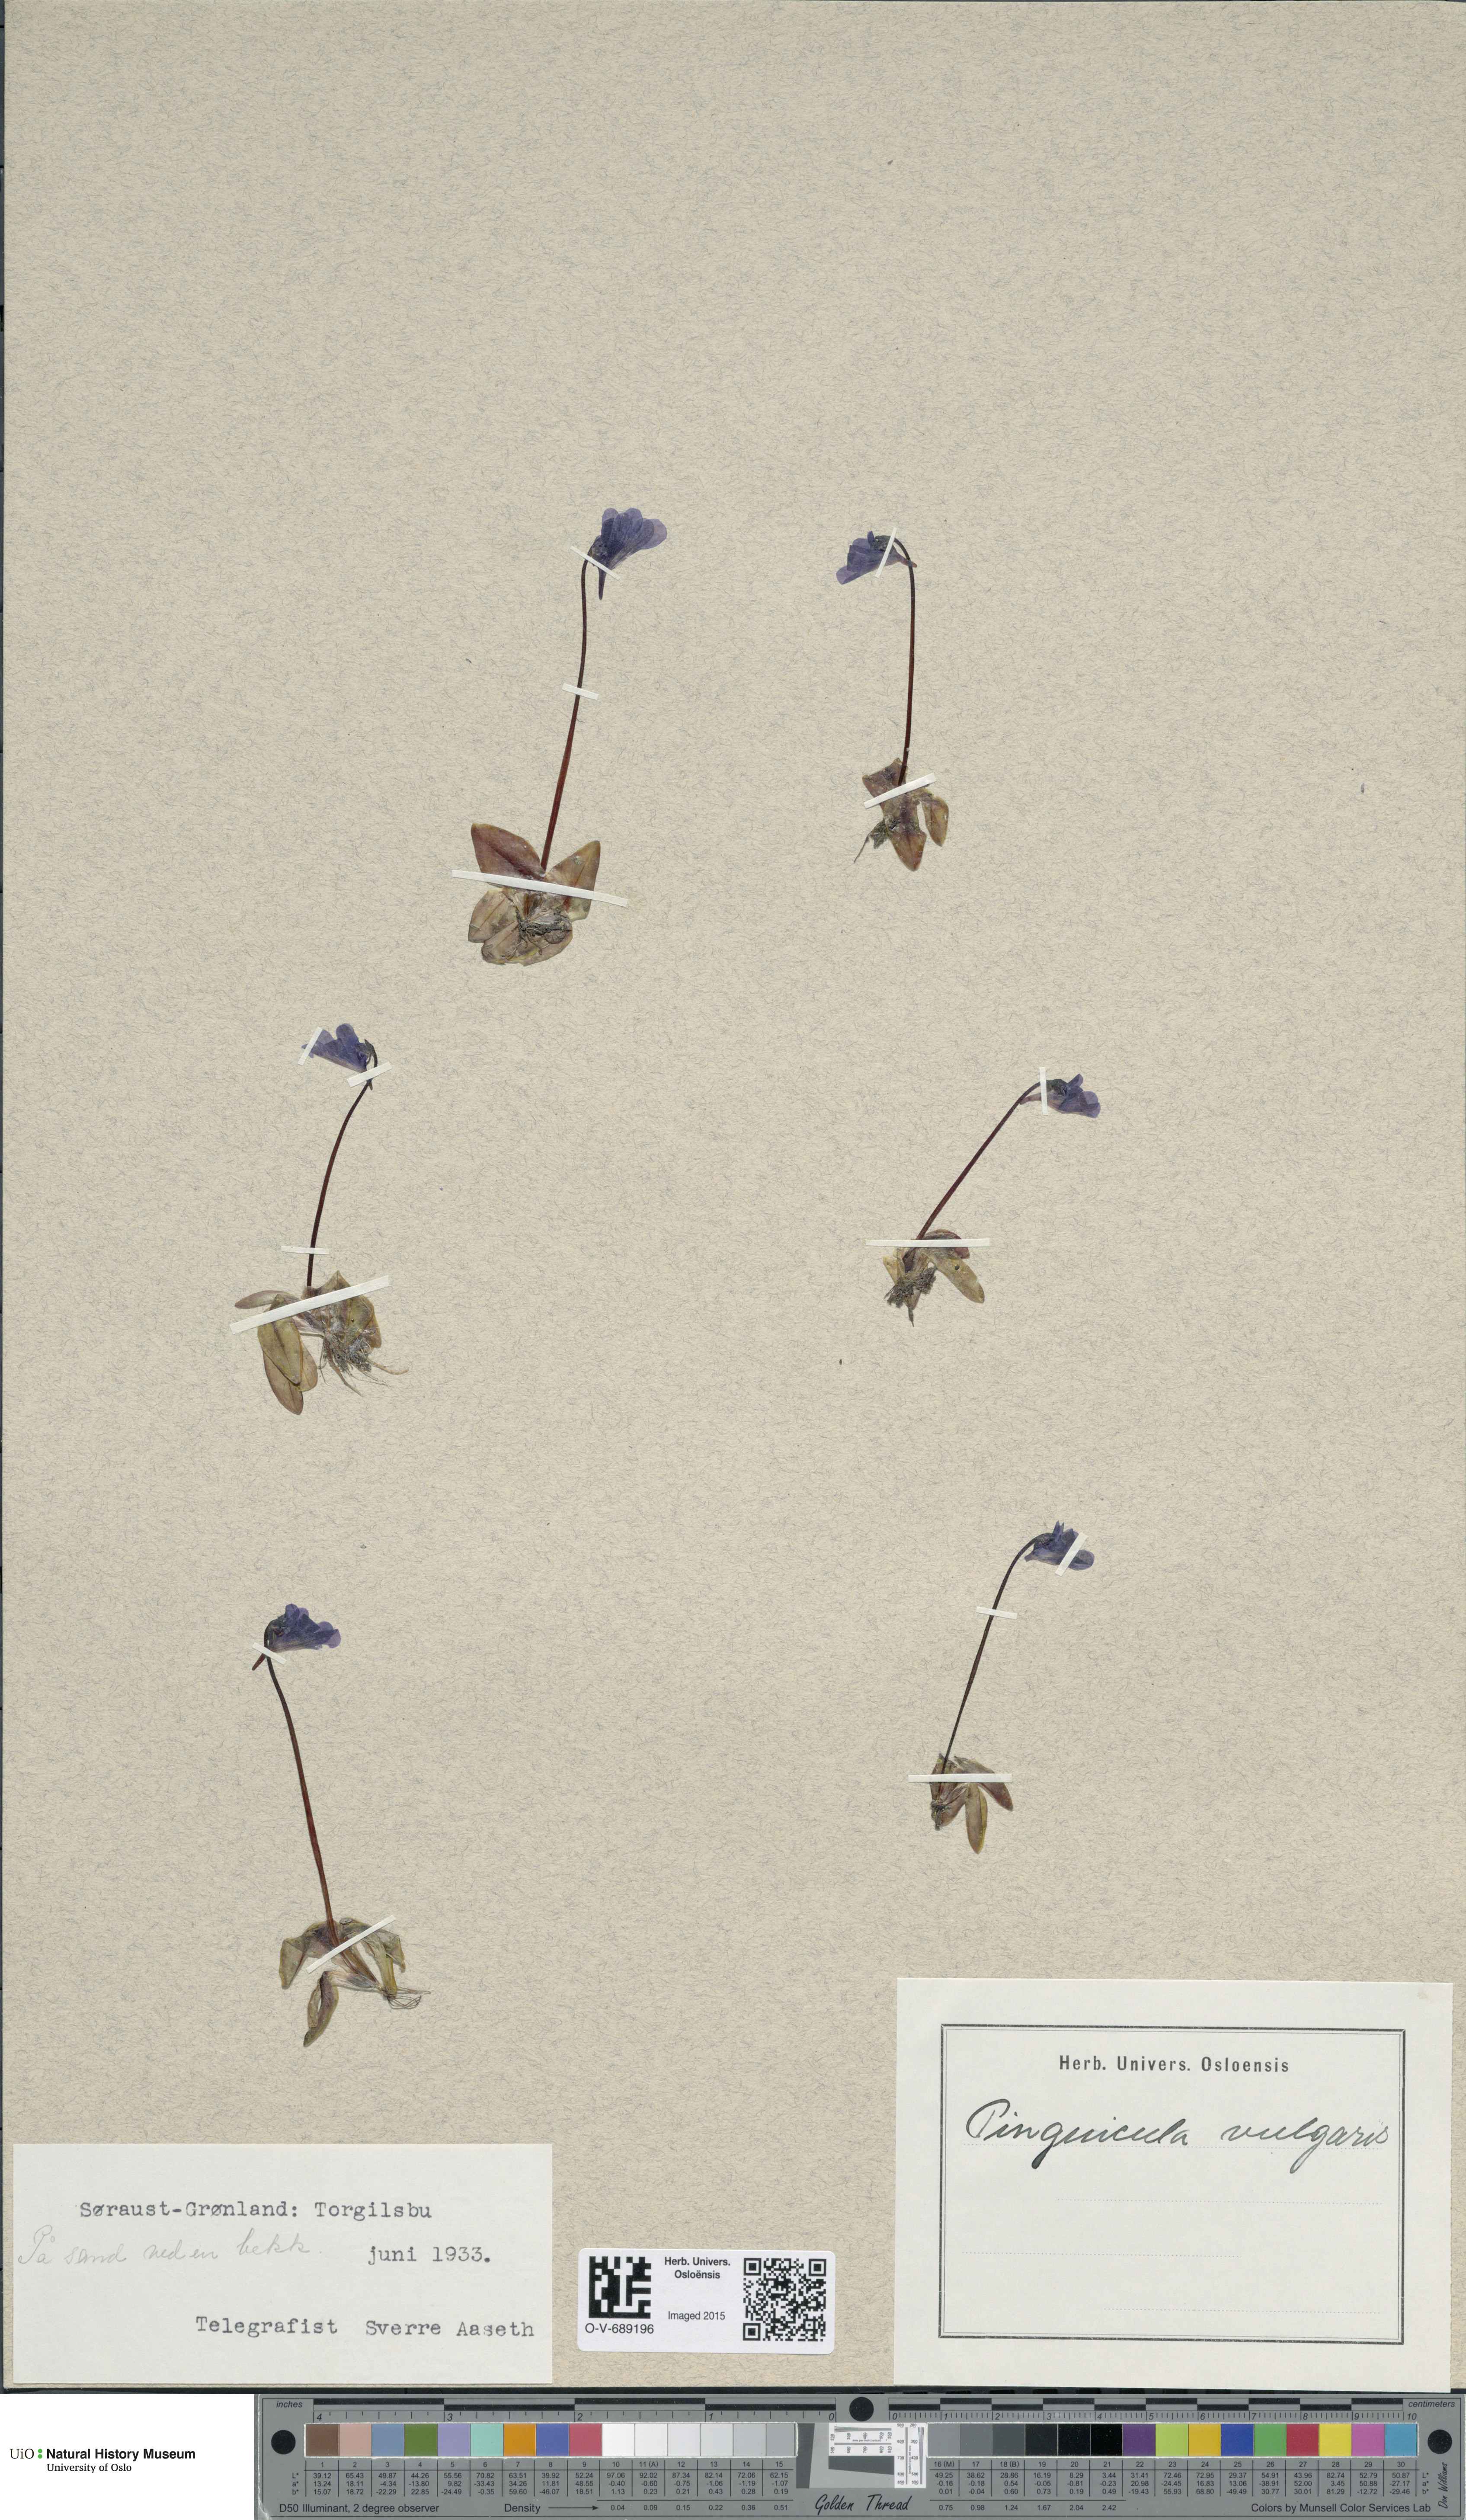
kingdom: Plantae
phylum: Tracheophyta
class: Magnoliopsida
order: Lamiales
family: Lentibulariaceae
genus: Pinguicula
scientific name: Pinguicula vulgaris
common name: Common butterwort
